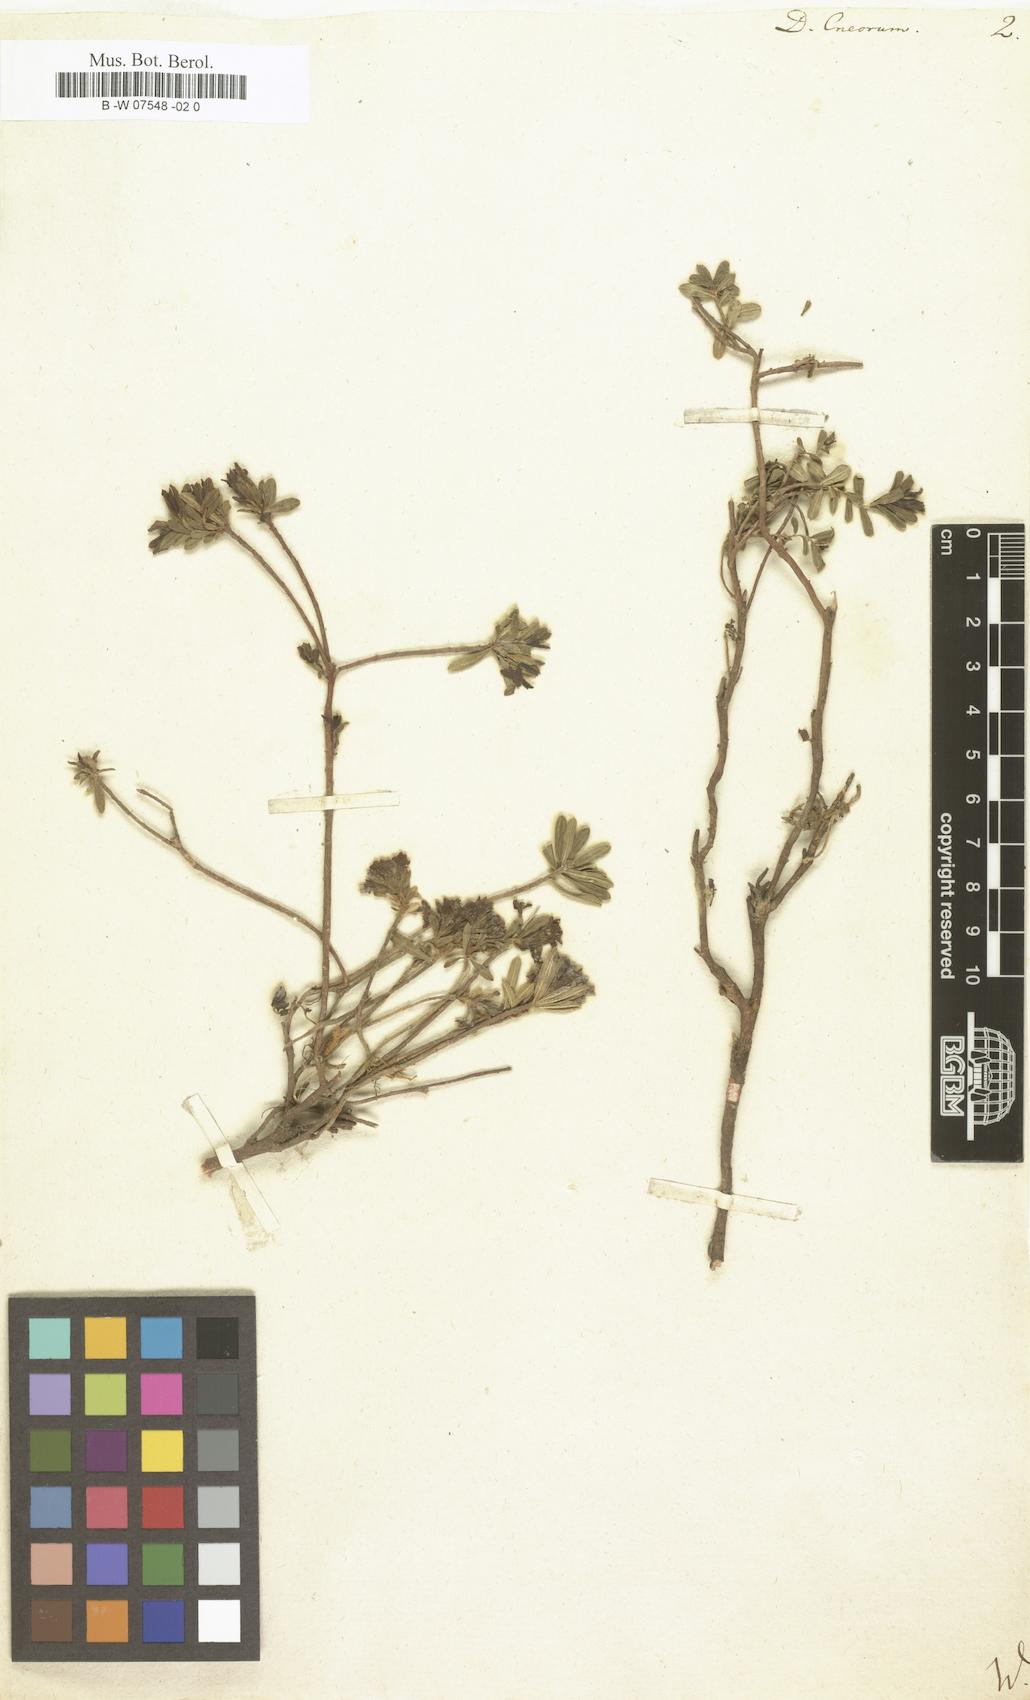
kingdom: Plantae
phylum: Tracheophyta
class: Magnoliopsida
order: Malvales
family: Thymelaeaceae
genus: Daphne
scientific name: Daphne cneorum
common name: Garland-flower
